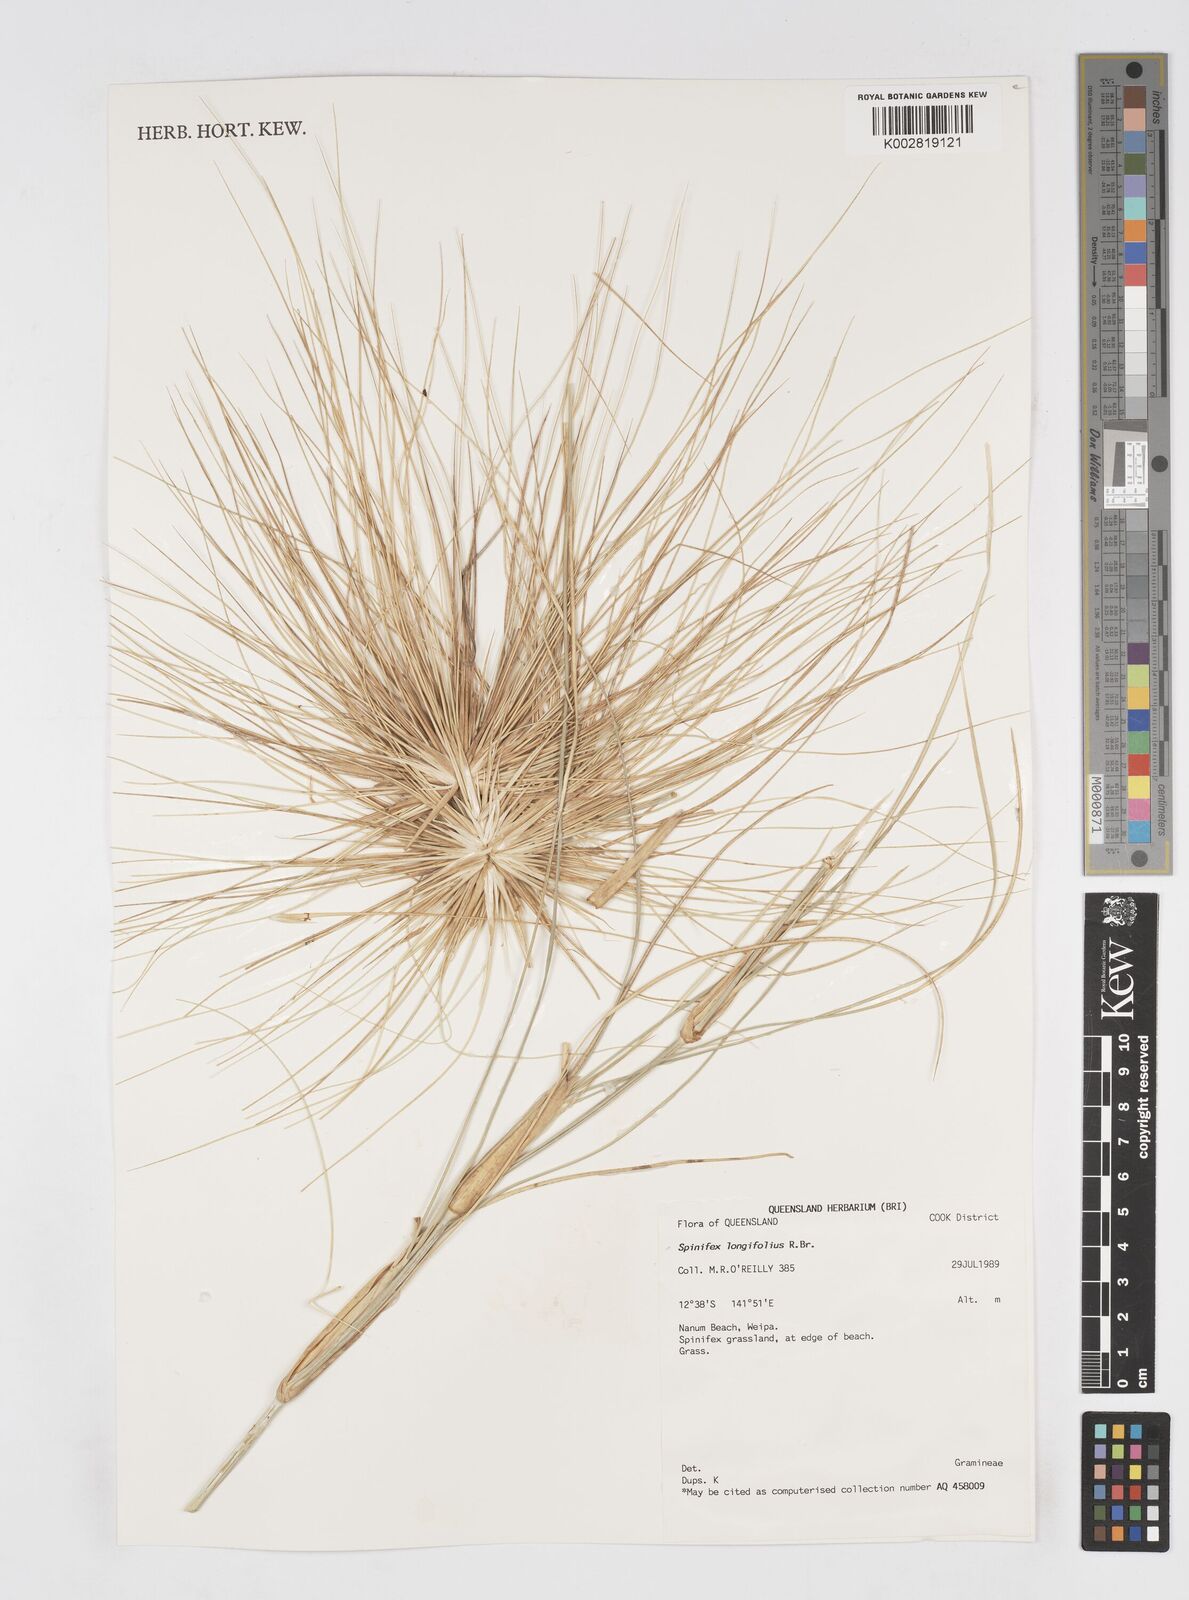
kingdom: Plantae
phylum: Tracheophyta
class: Liliopsida
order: Poales
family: Poaceae
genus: Spinifex
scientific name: Spinifex longifolius
